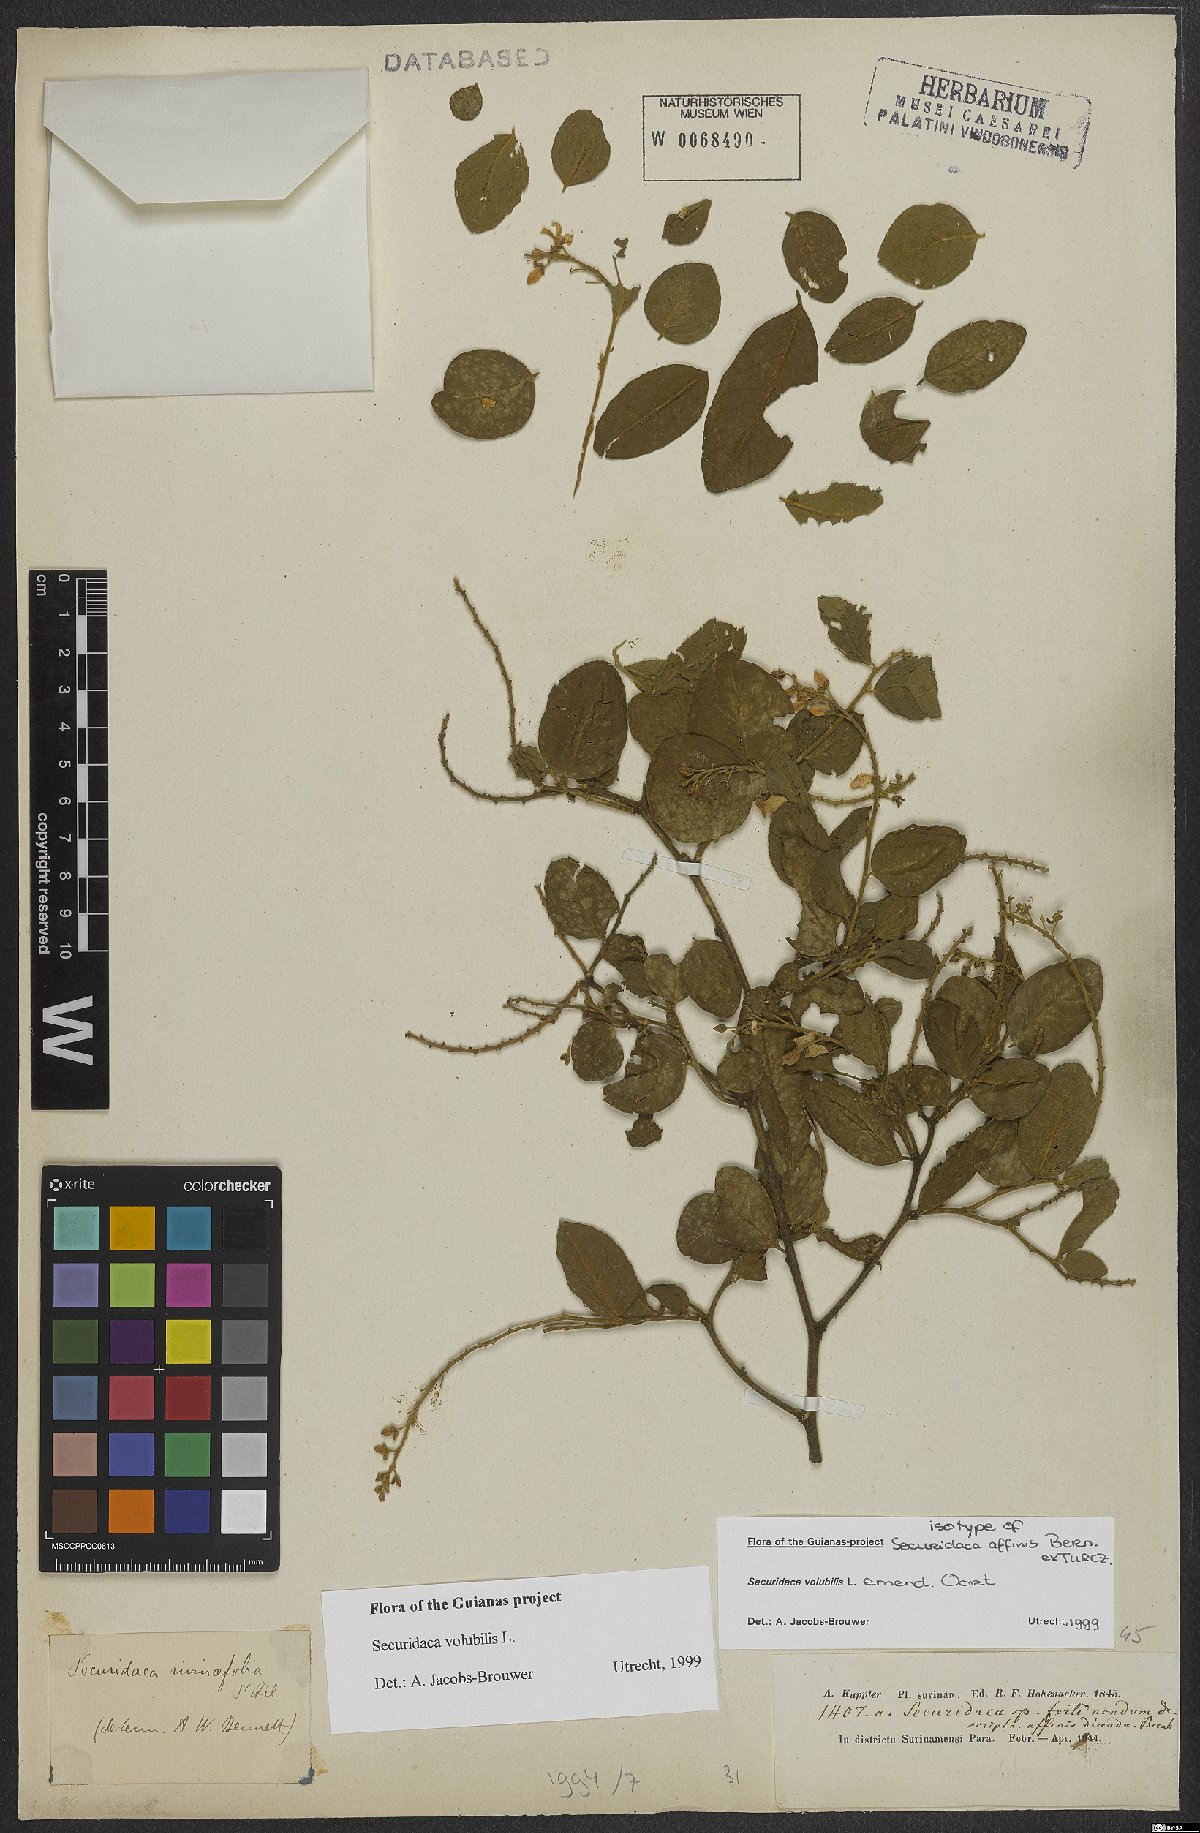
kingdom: Plantae
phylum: Tracheophyta
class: Magnoliopsida
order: Fabales
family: Polygalaceae
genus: Securidaca
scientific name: Securidaca
